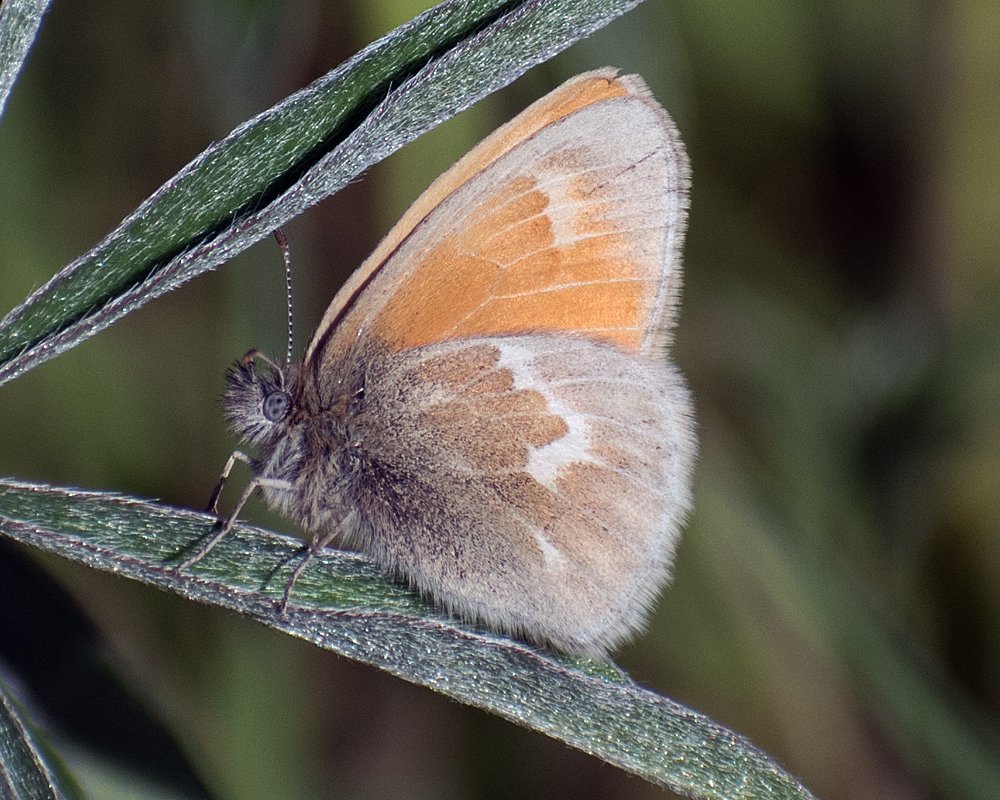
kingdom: Animalia
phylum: Arthropoda
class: Insecta
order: Lepidoptera
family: Nymphalidae
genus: Coenonympha
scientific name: Coenonympha tullia
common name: Large Heath
